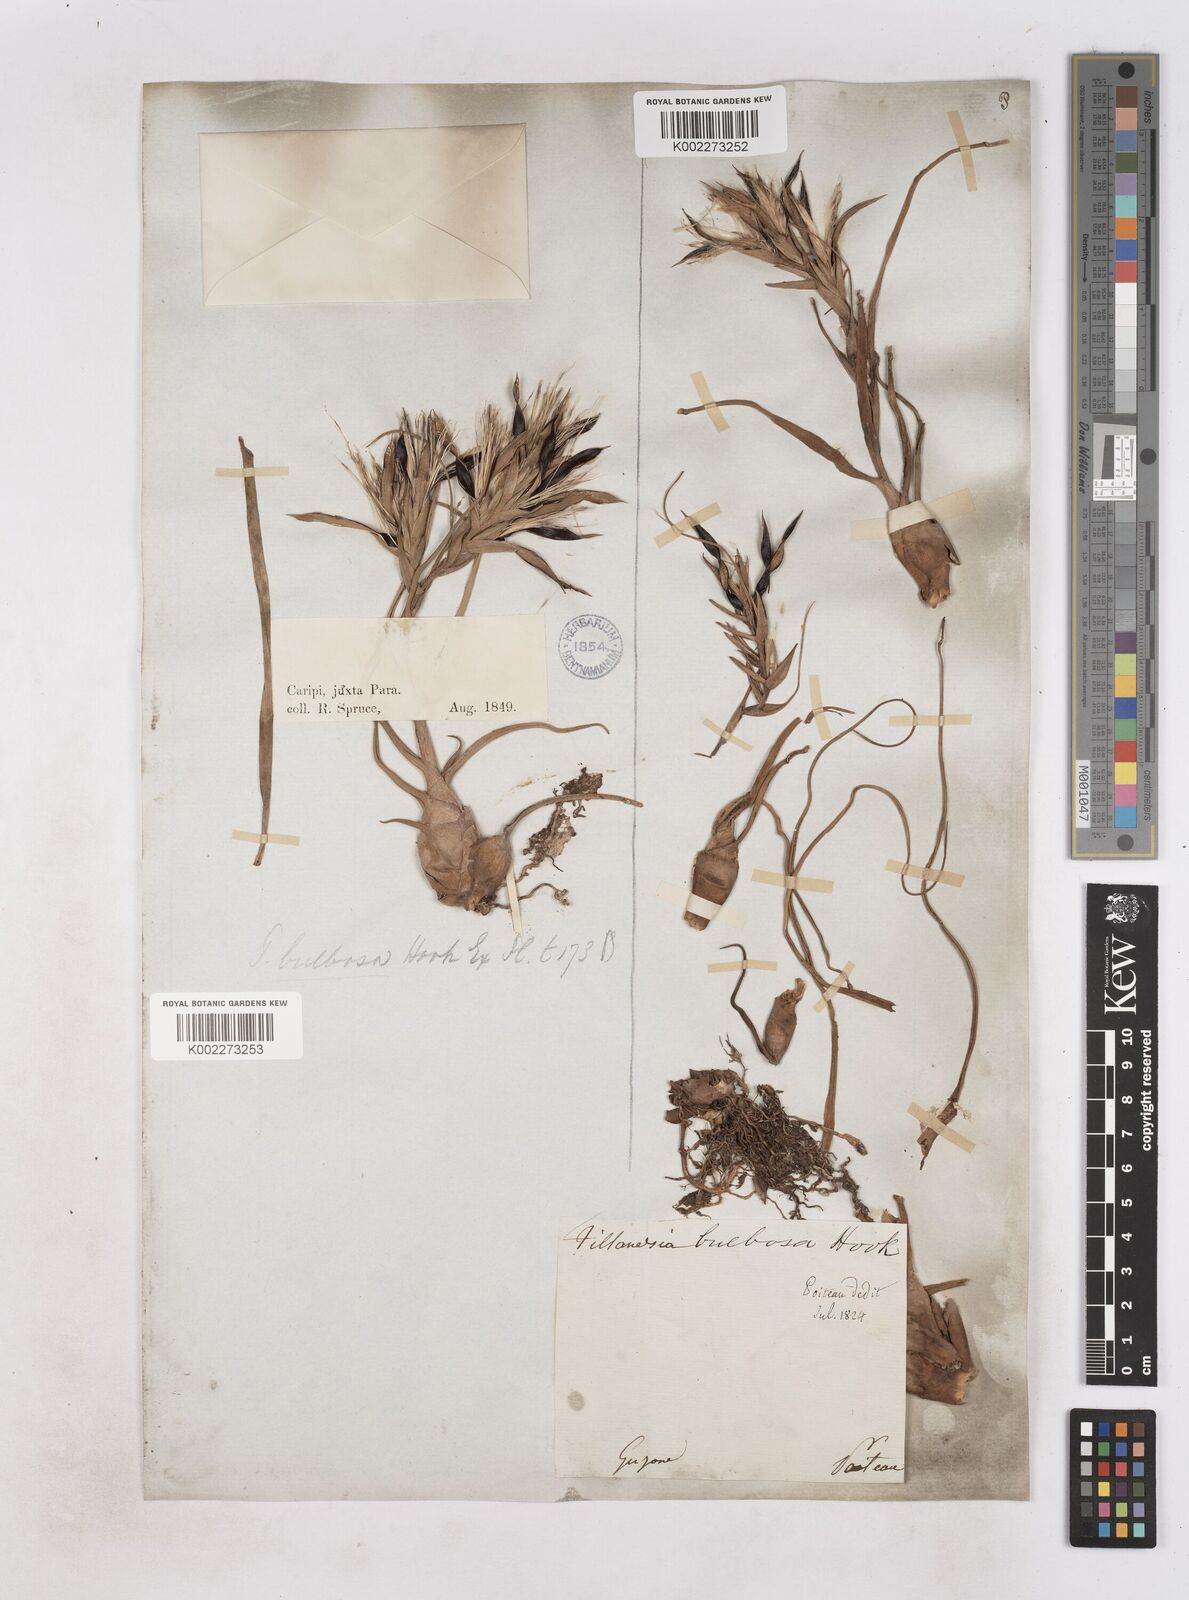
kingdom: Plantae
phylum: Tracheophyta
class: Liliopsida
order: Poales
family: Bromeliaceae
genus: Tillandsia
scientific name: Tillandsia bulbosa
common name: Bulbous airplant
